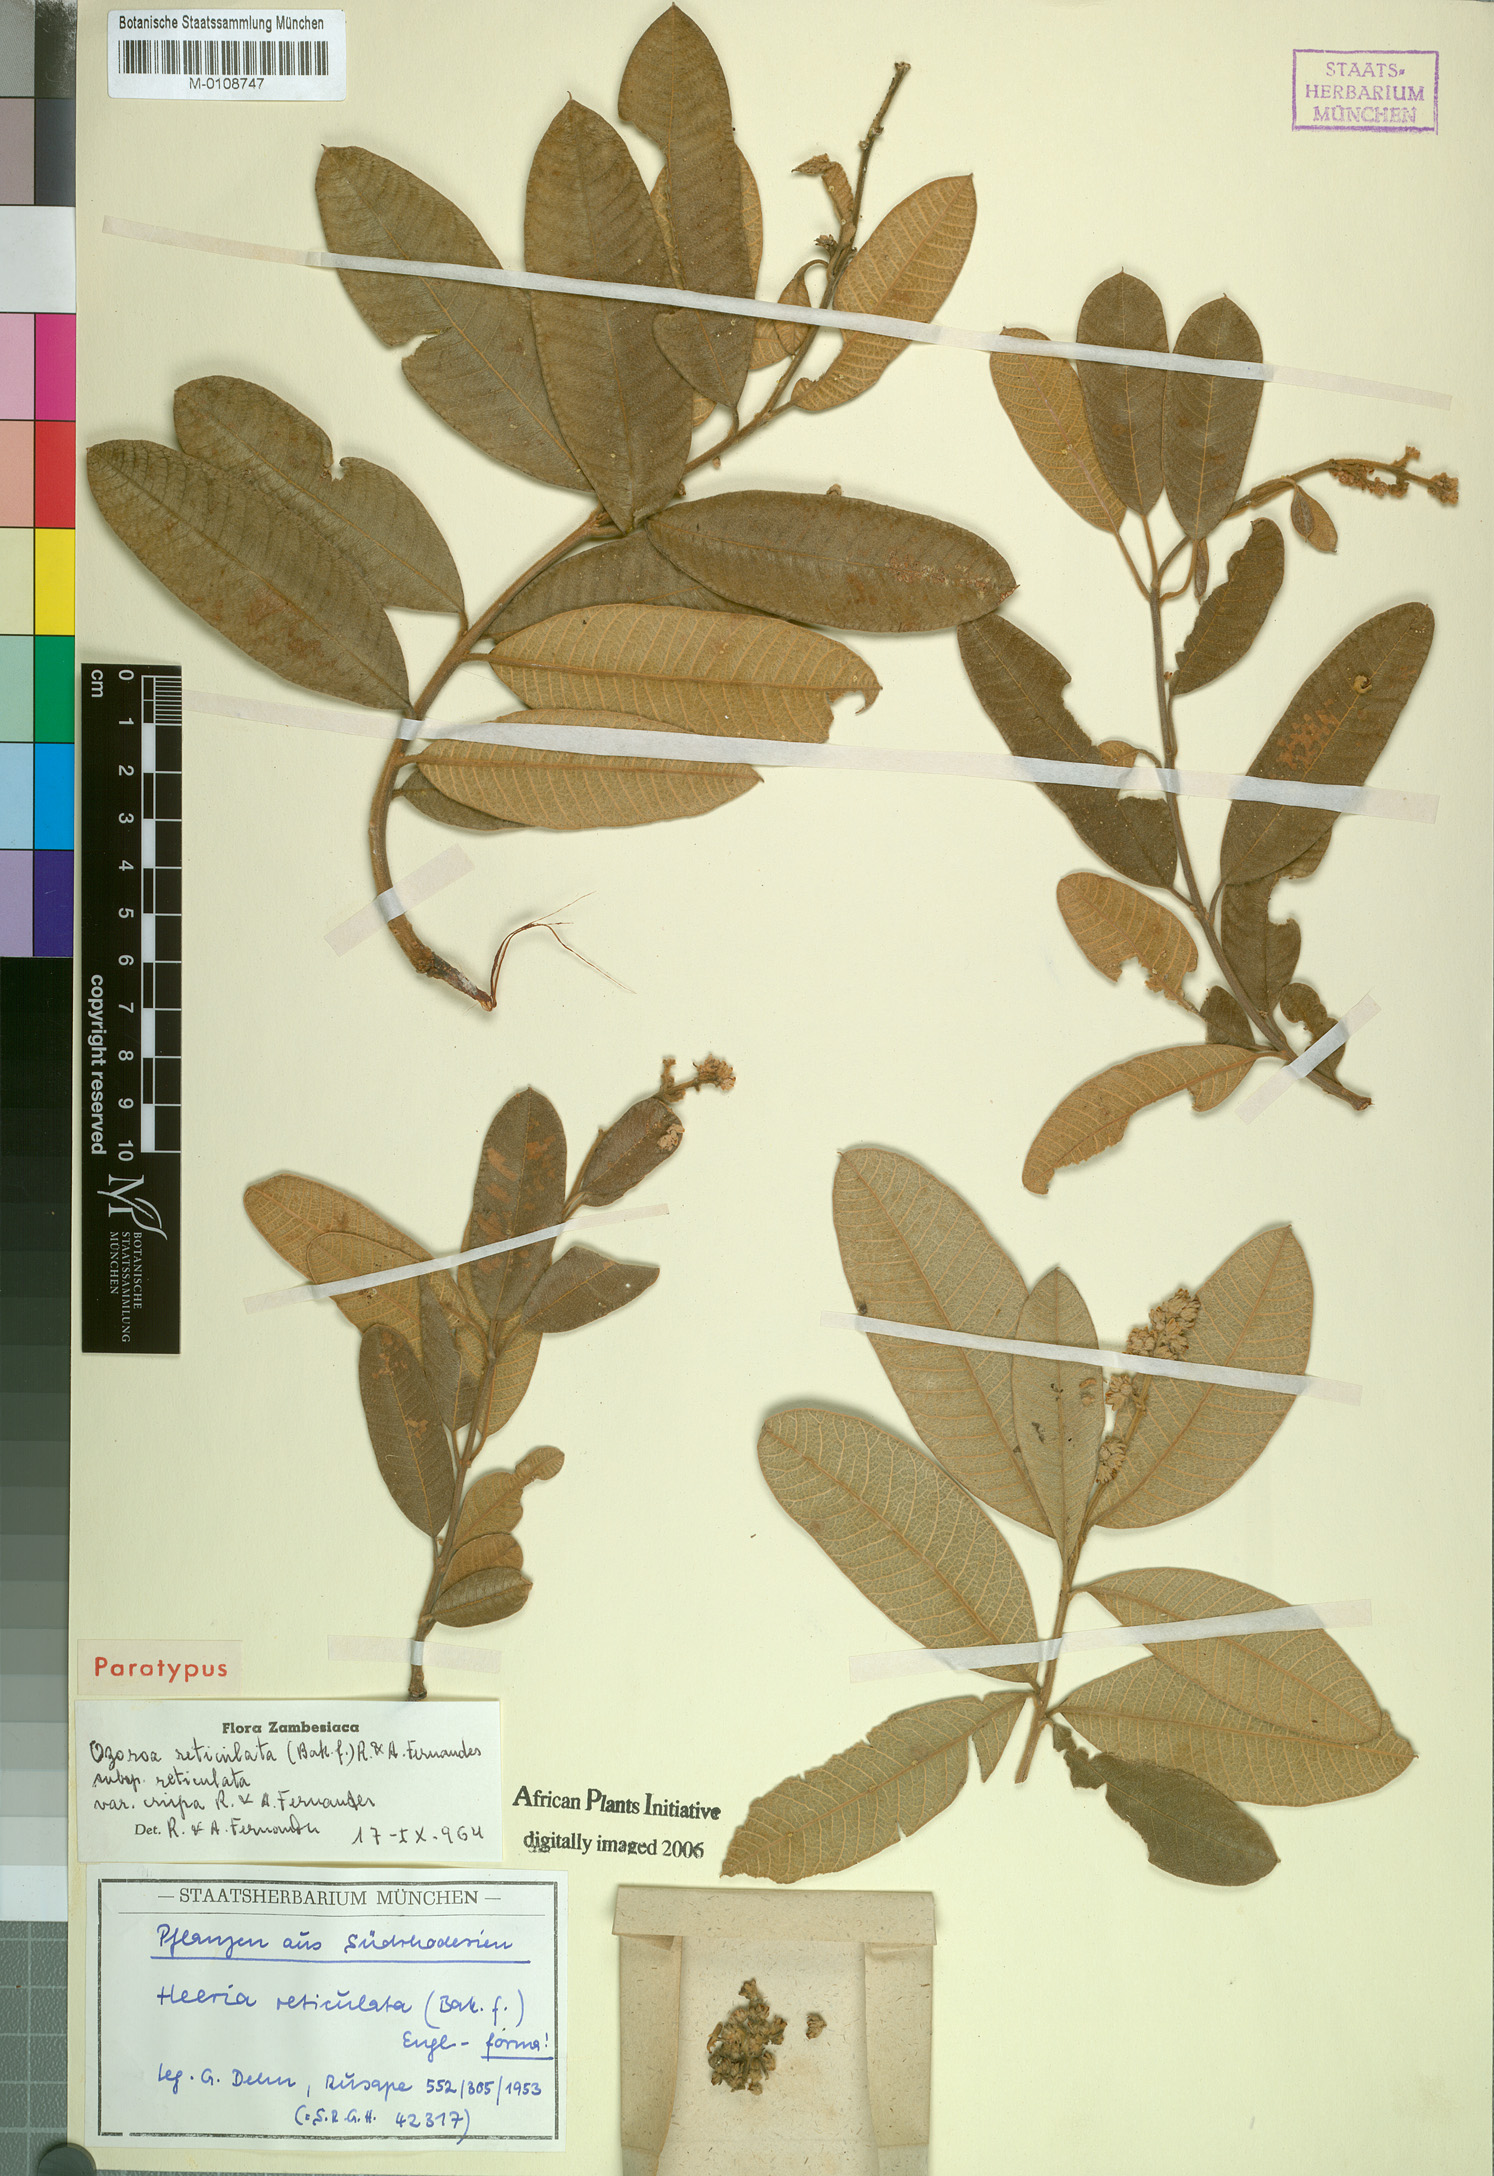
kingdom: Plantae
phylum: Tracheophyta
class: Magnoliopsida
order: Sapindales
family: Anacardiaceae
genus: Ozoroa
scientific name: Ozoroa insignis
